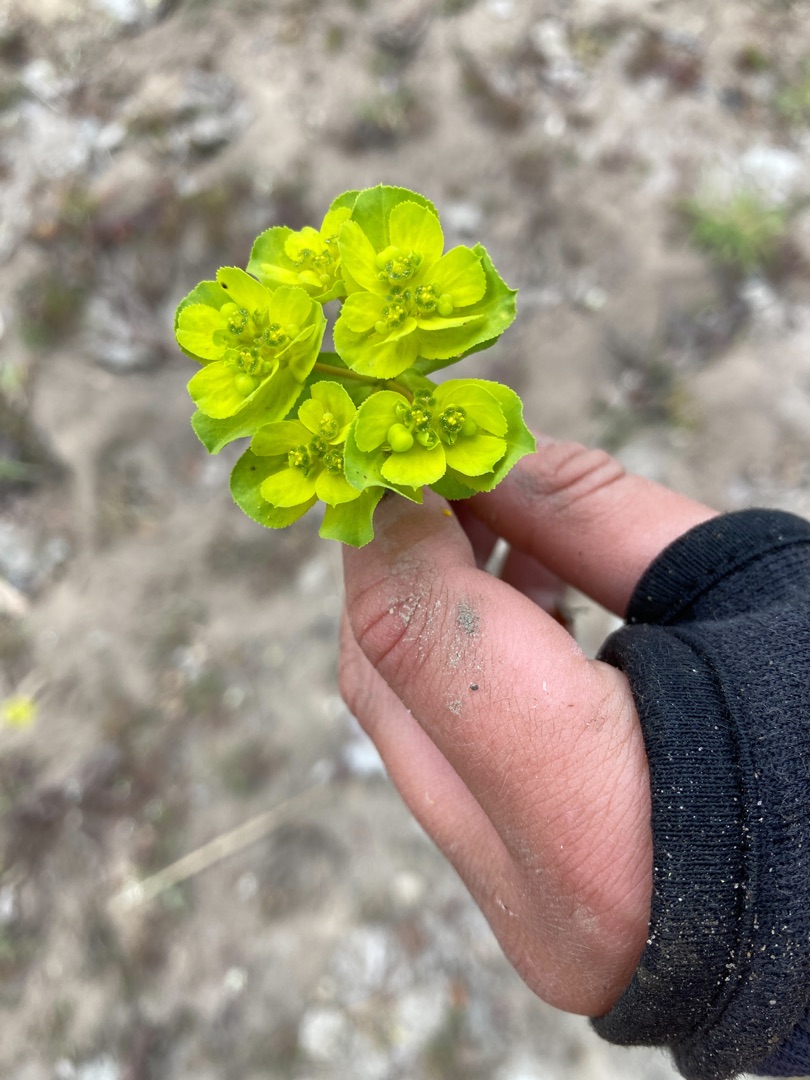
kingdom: Plantae
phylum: Tracheophyta
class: Magnoliopsida
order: Malpighiales
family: Euphorbiaceae
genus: Euphorbia
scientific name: Euphorbia helioscopia
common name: Skærm-vortemælk
